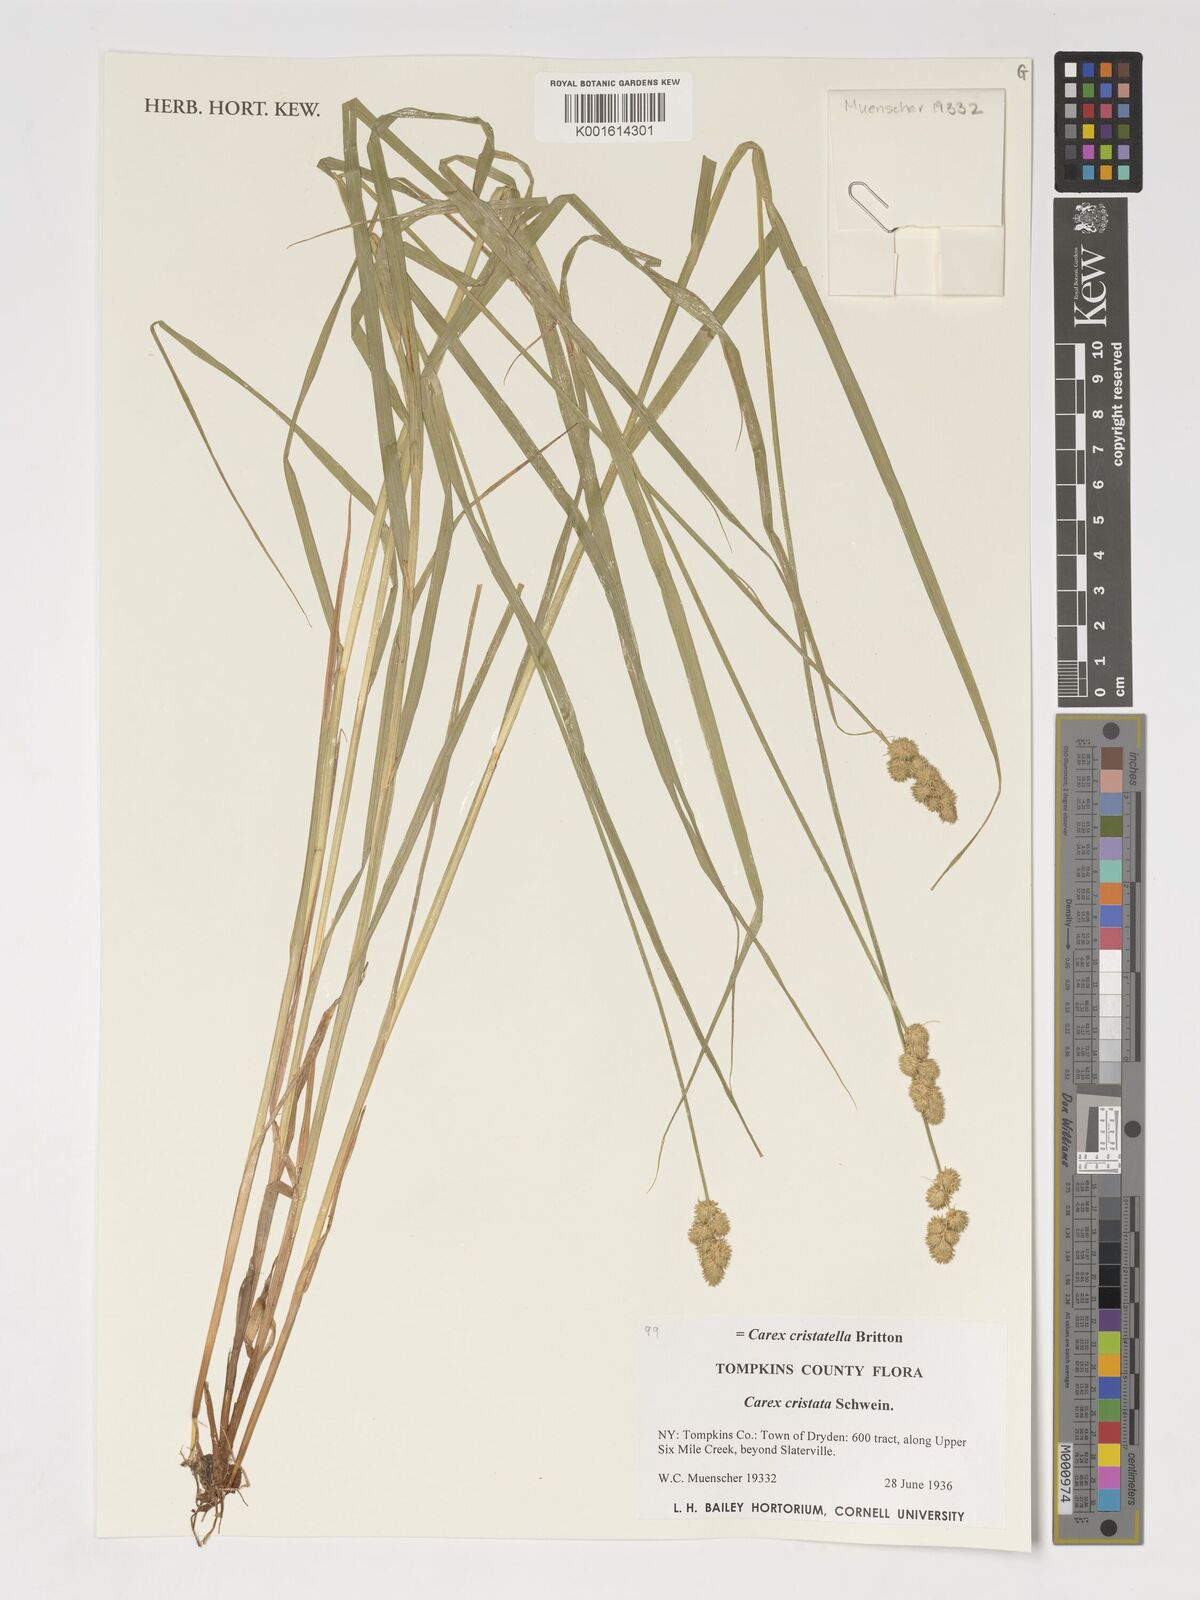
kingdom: Plantae
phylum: Tracheophyta
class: Liliopsida
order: Poales
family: Cyperaceae
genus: Carex
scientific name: Carex cristatella
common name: Crested oval sedge
